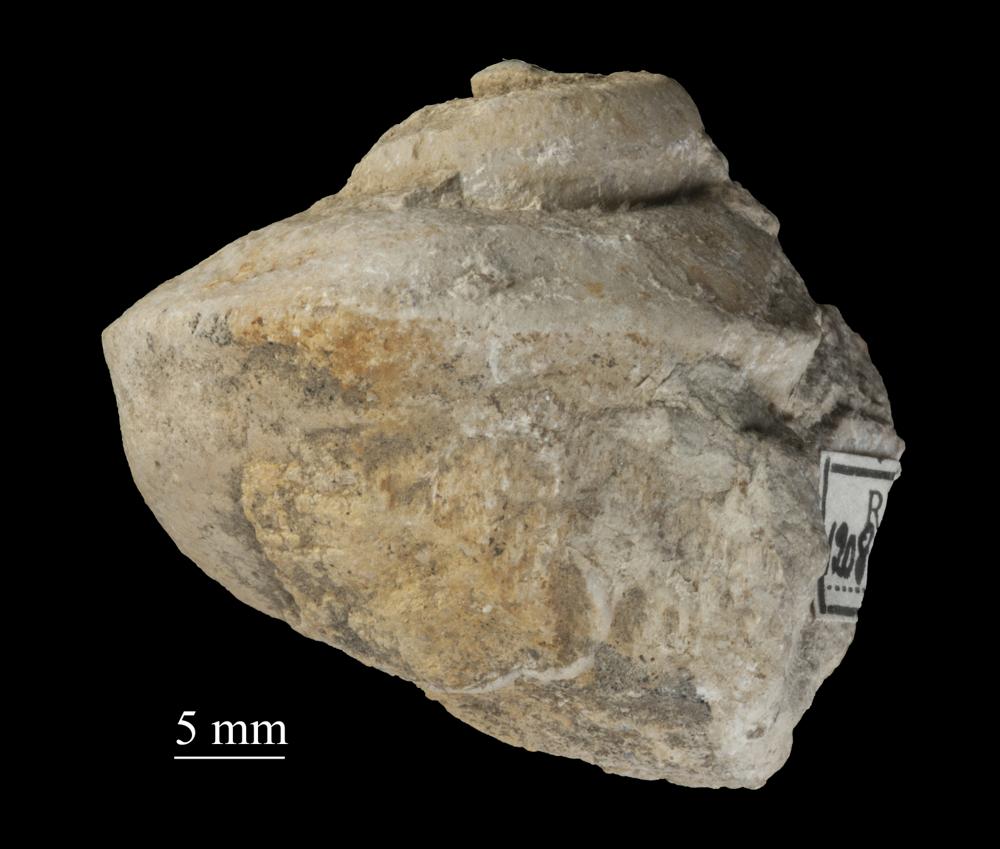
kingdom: Animalia
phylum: Mollusca
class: Gastropoda
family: Lophospiridae
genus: Ruedemannia
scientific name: Ruedemannia Worthenia borkholmiensis
